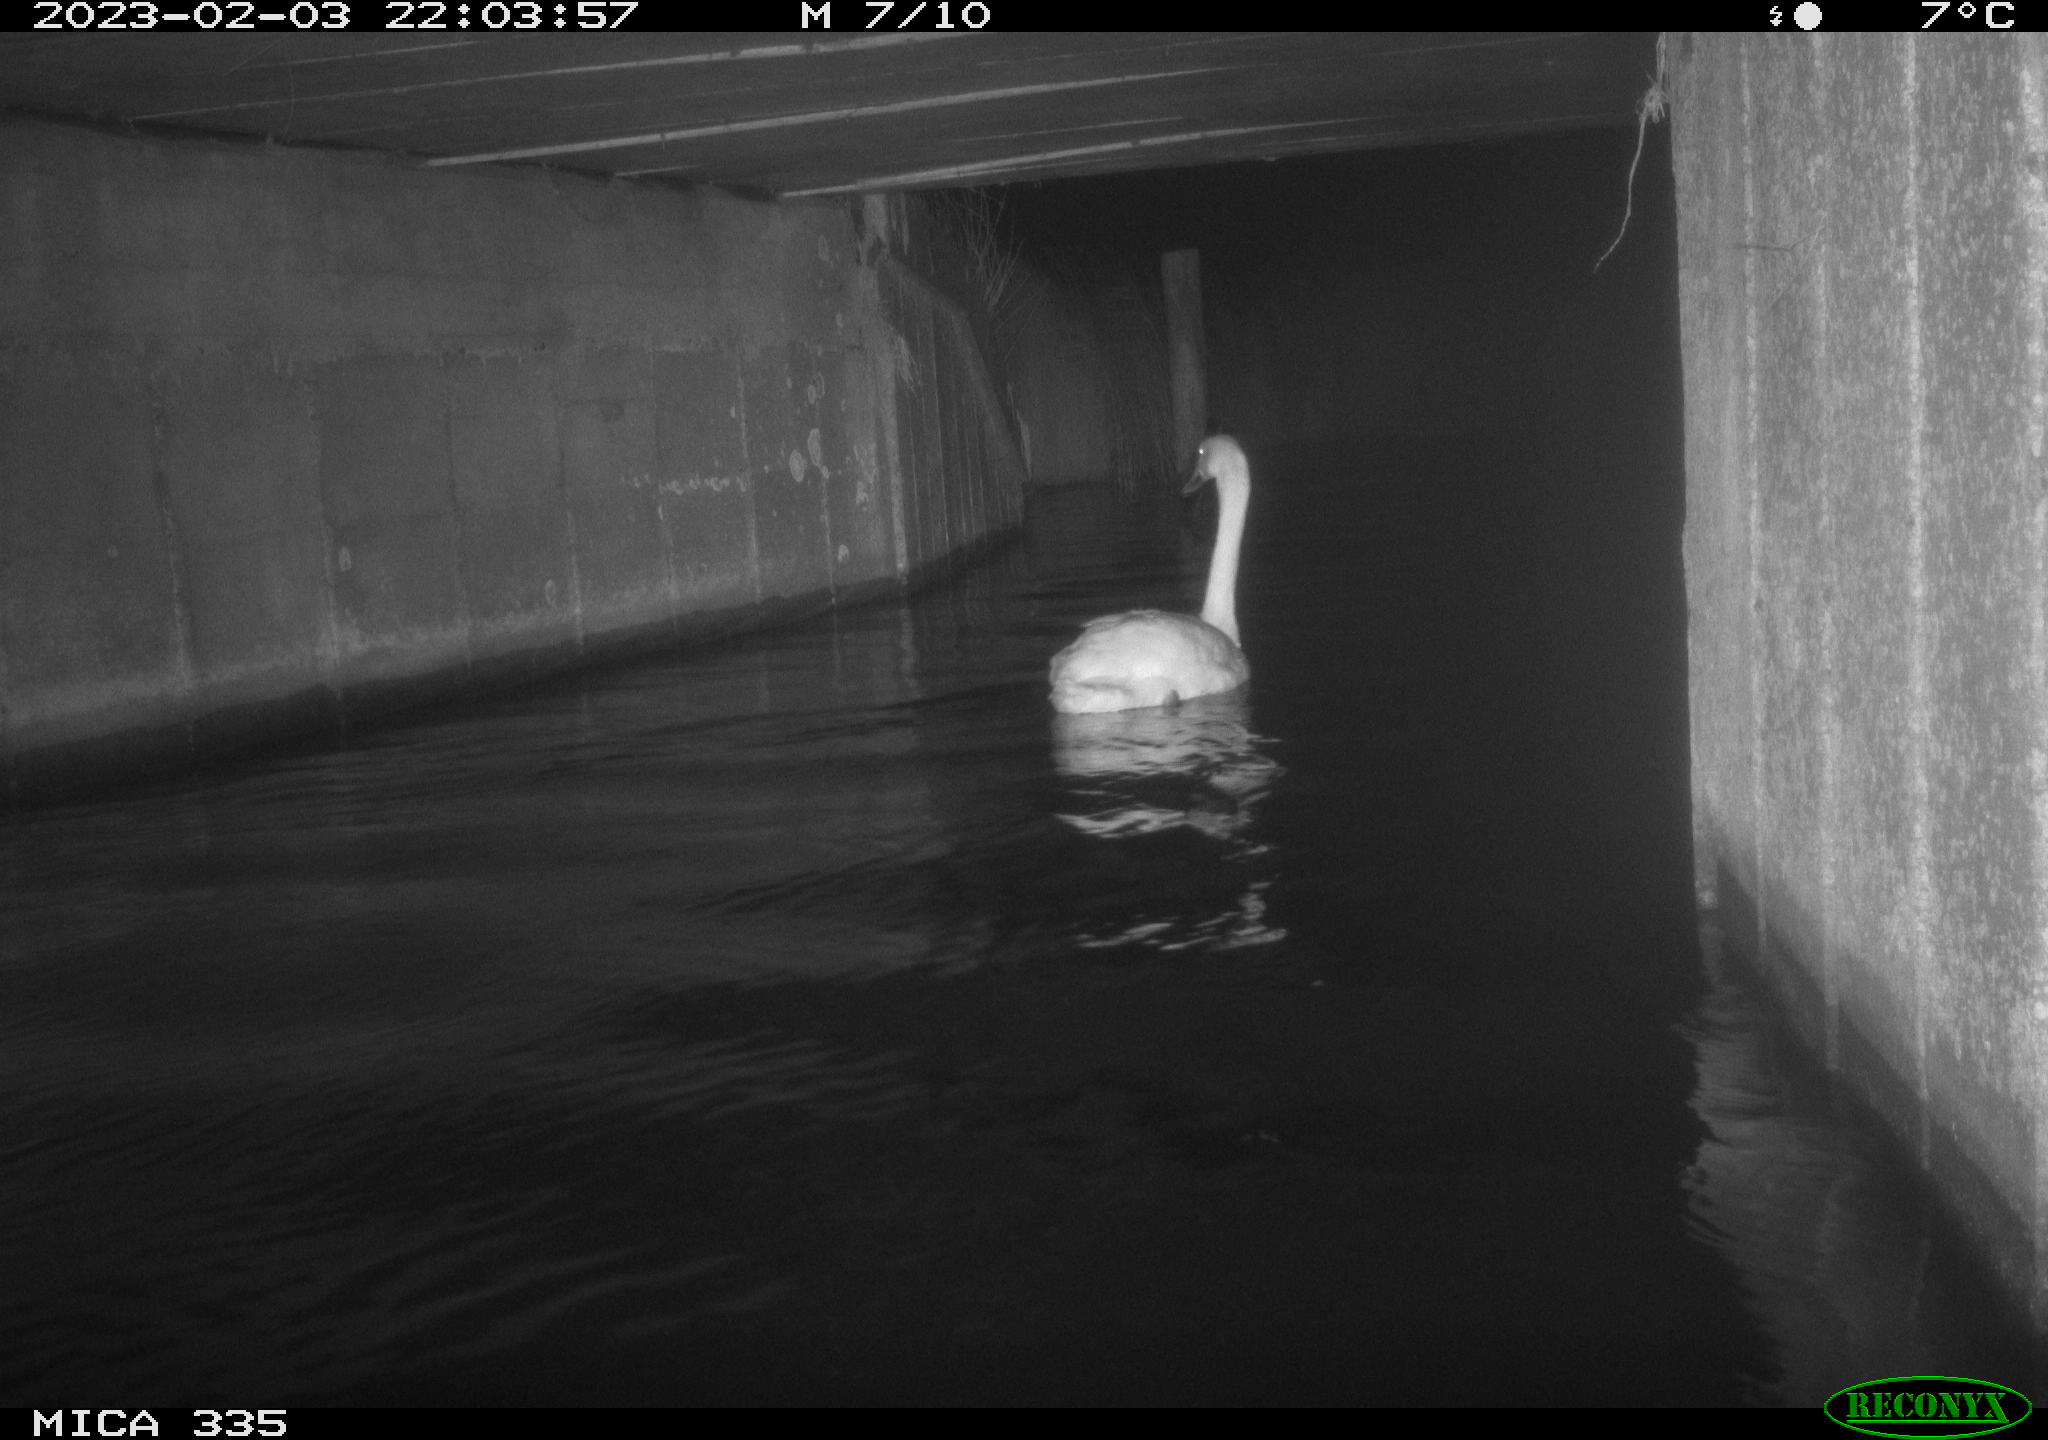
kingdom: Animalia
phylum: Chordata
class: Aves
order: Anseriformes
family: Anatidae
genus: Cygnus
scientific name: Cygnus olor
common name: Mute swan
